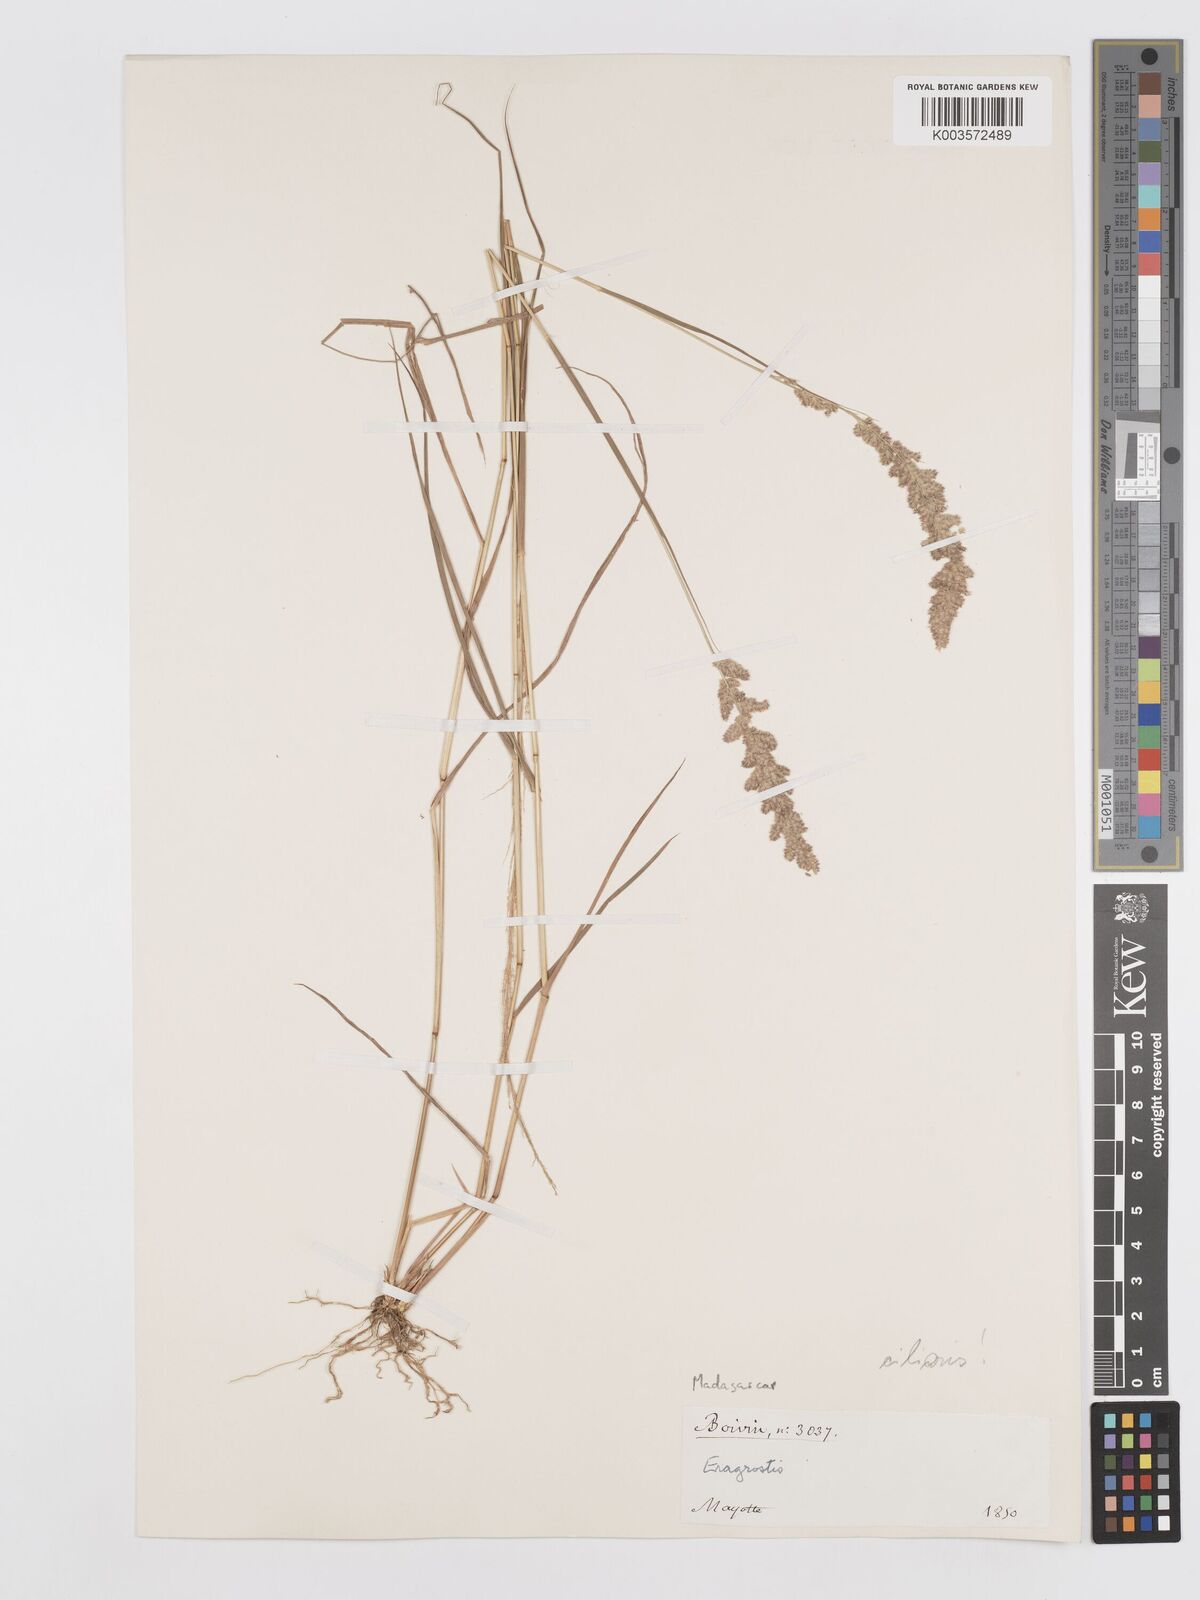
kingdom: Plantae
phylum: Tracheophyta
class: Liliopsida
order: Poales
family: Poaceae
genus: Eragrostis
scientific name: Eragrostis ciliaris
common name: Gophertail lovegrass
